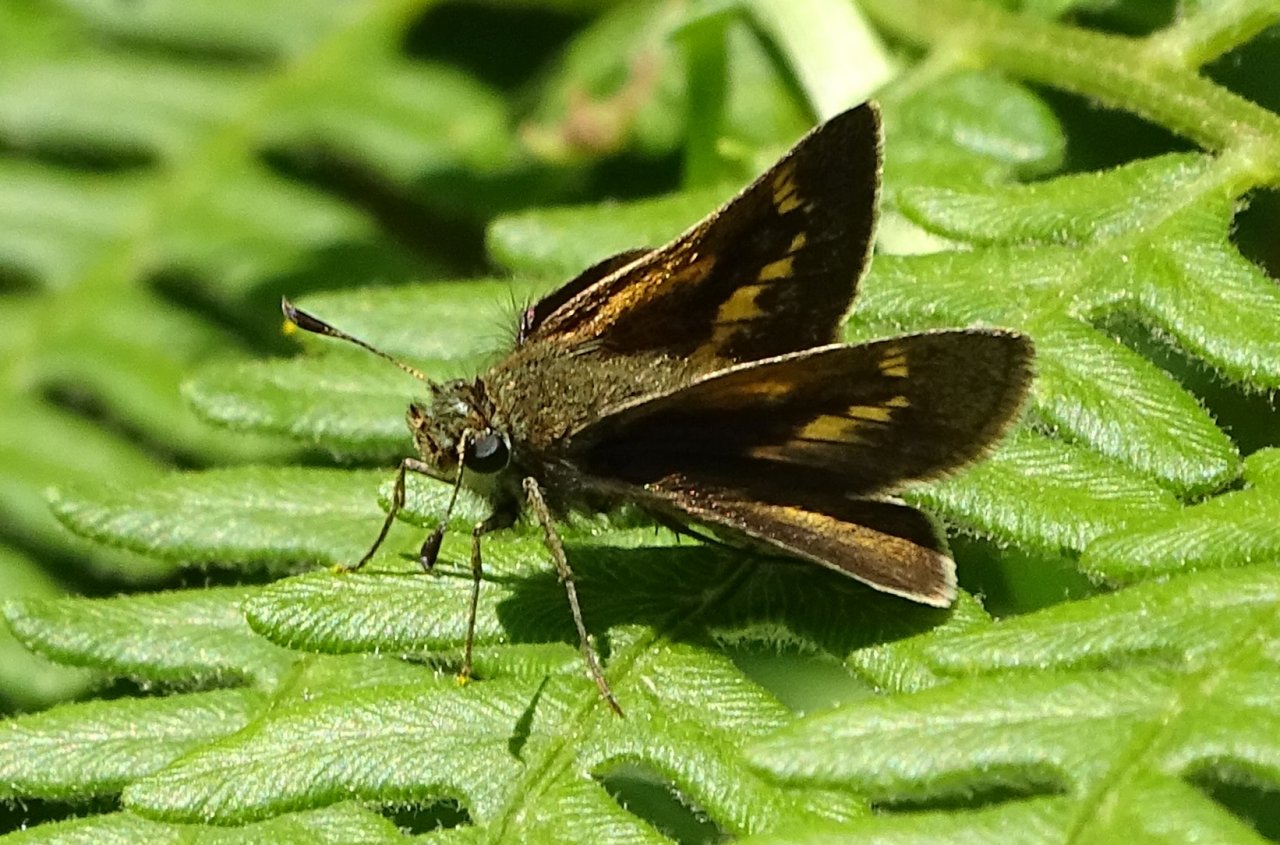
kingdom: Animalia
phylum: Arthropoda
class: Insecta
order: Lepidoptera
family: Hesperiidae
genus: Polites
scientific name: Polites themistocles
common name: Tawny-edged Skipper
